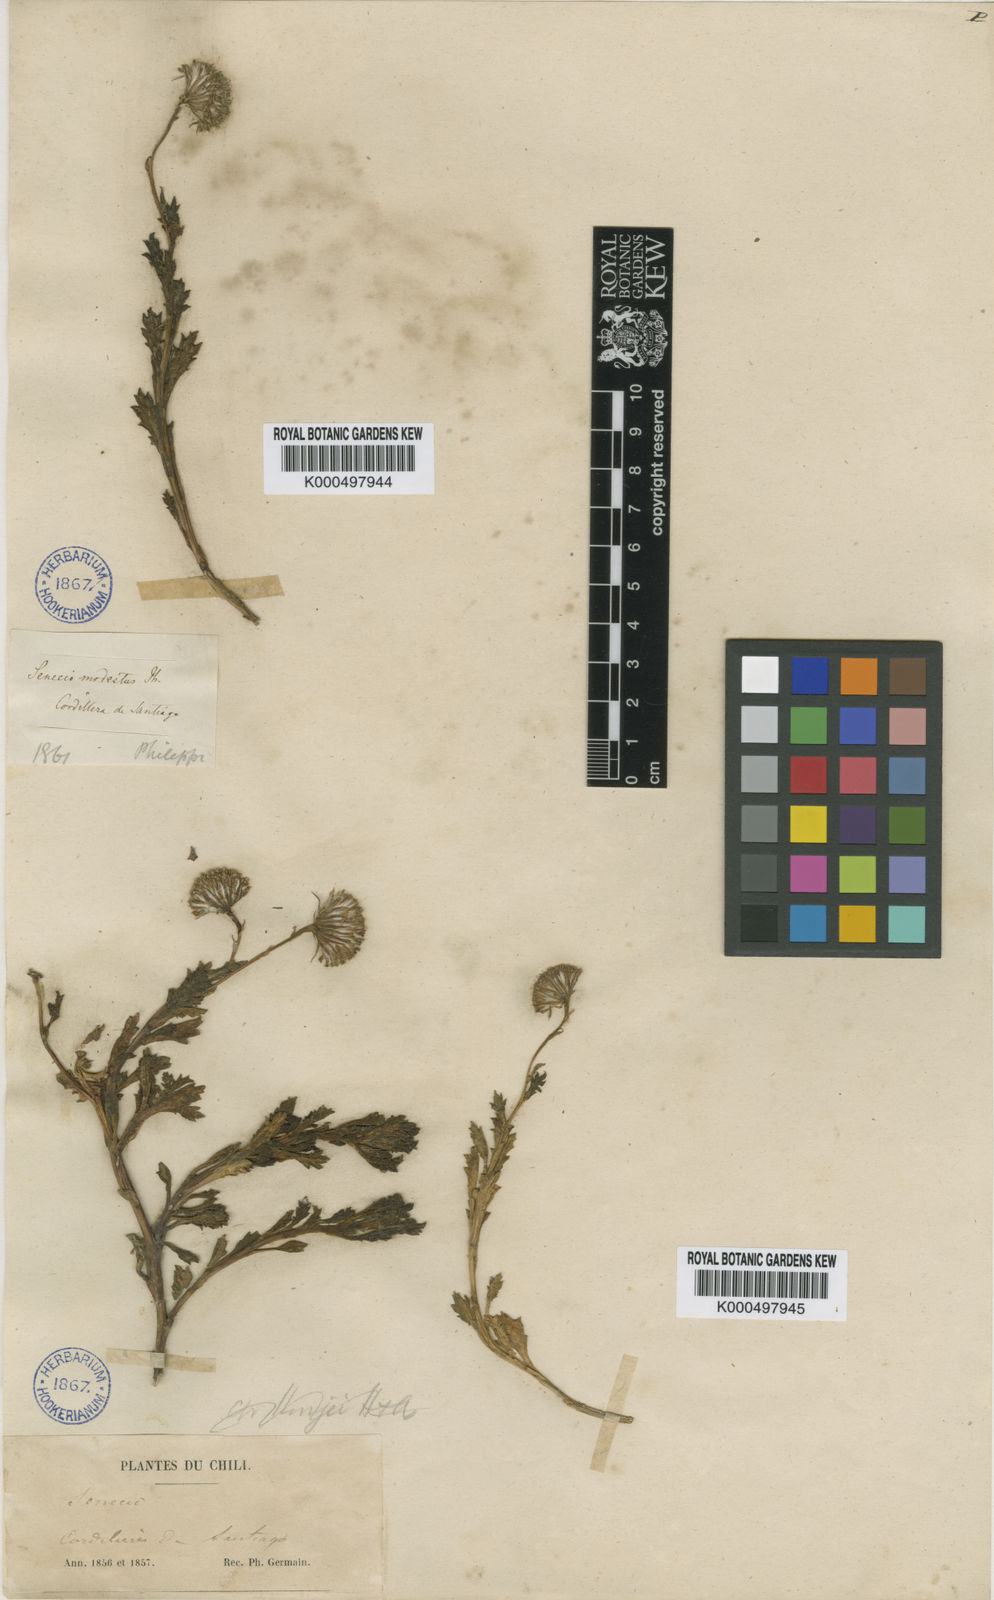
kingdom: Plantae
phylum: Tracheophyta
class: Magnoliopsida
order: Asterales
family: Asteraceae
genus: Senecio
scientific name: Senecio werdermannii
